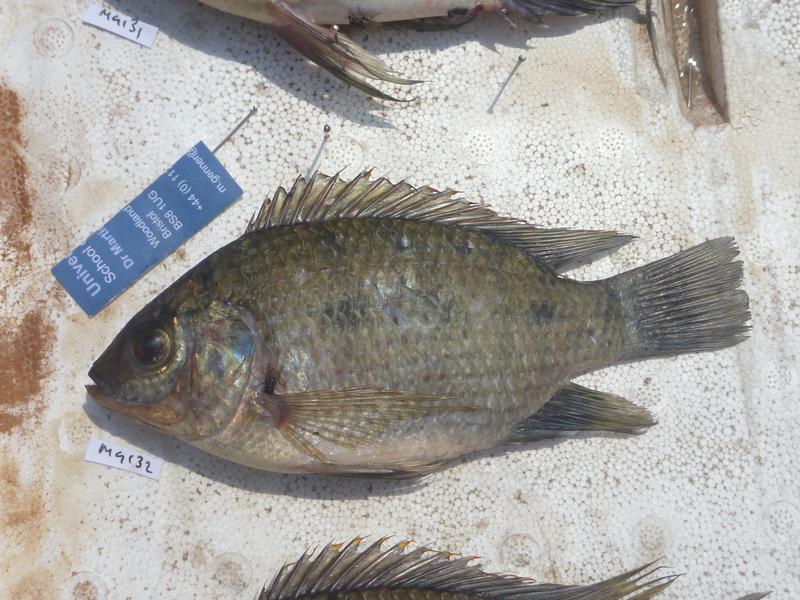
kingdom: Animalia
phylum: Chordata
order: Perciformes
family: Cichlidae
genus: Oreochromis
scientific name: Oreochromis upembae
